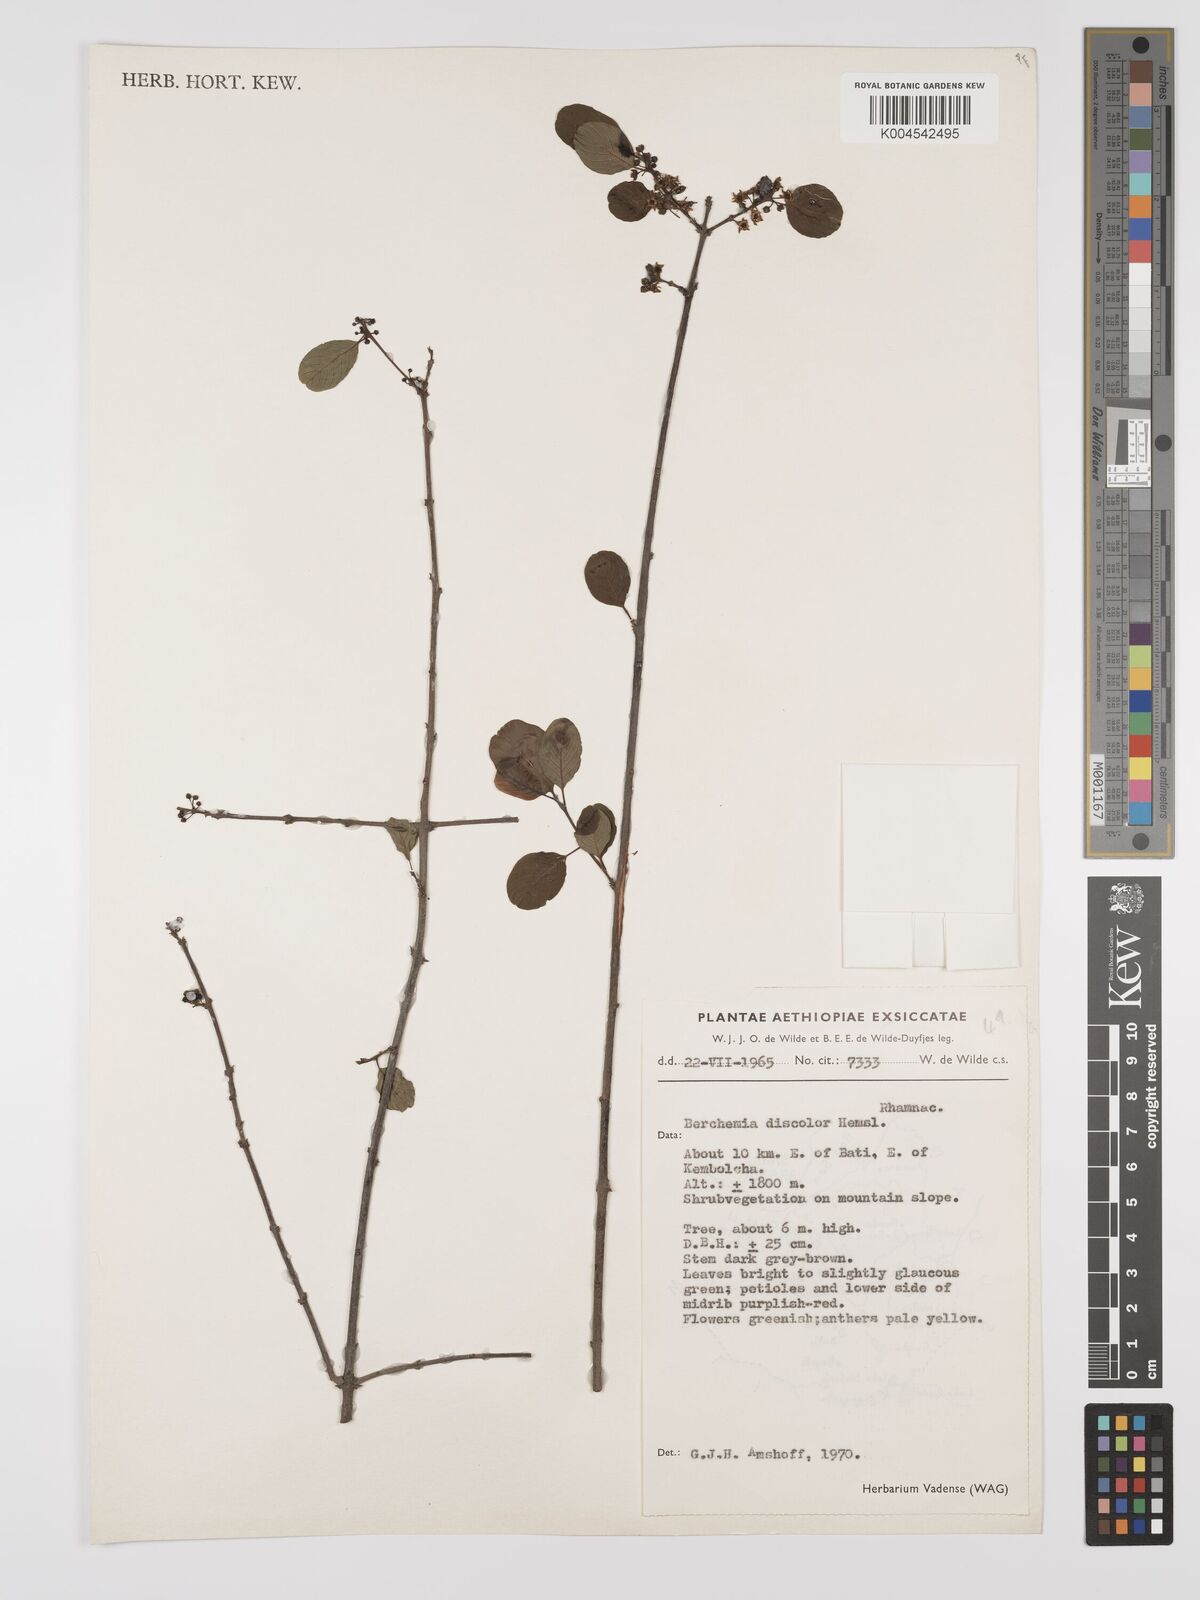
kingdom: Plantae
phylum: Tracheophyta
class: Magnoliopsida
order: Rosales
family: Rhamnaceae
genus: Phyllogeiton
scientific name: Phyllogeiton discolor
